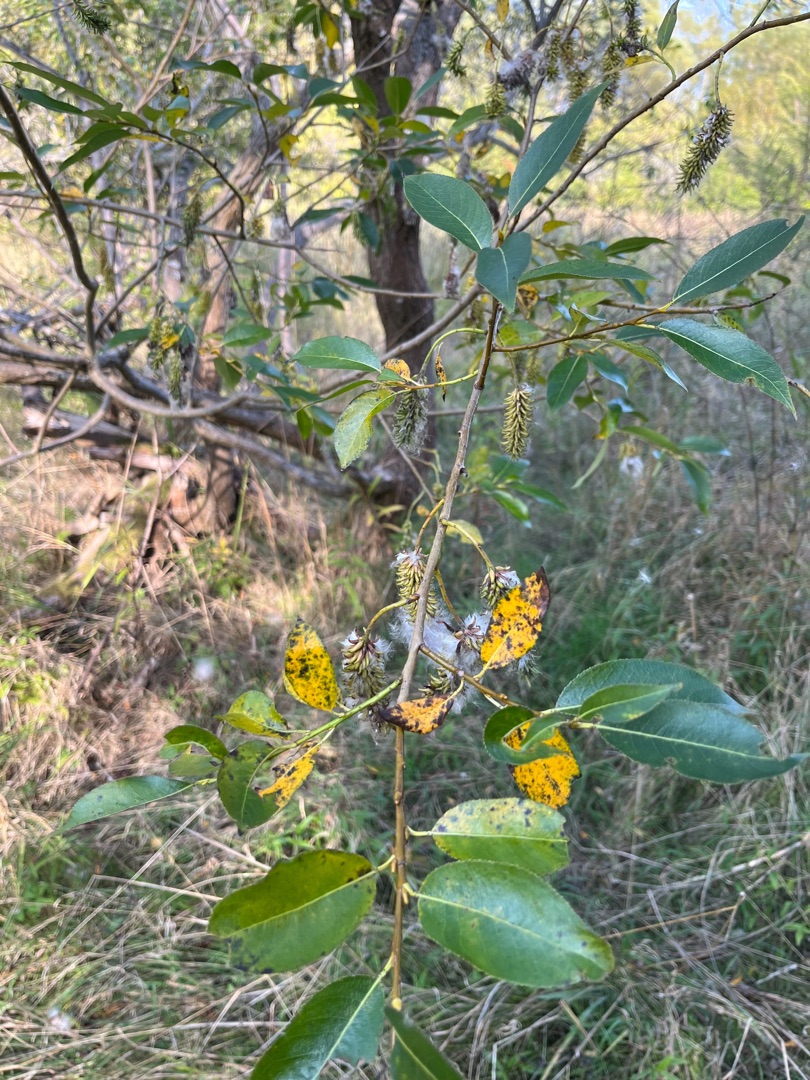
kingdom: Plantae
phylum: Tracheophyta
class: Magnoliopsida
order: Malpighiales
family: Salicaceae
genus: Salix
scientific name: Salix pentandra
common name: Femhannet pil
